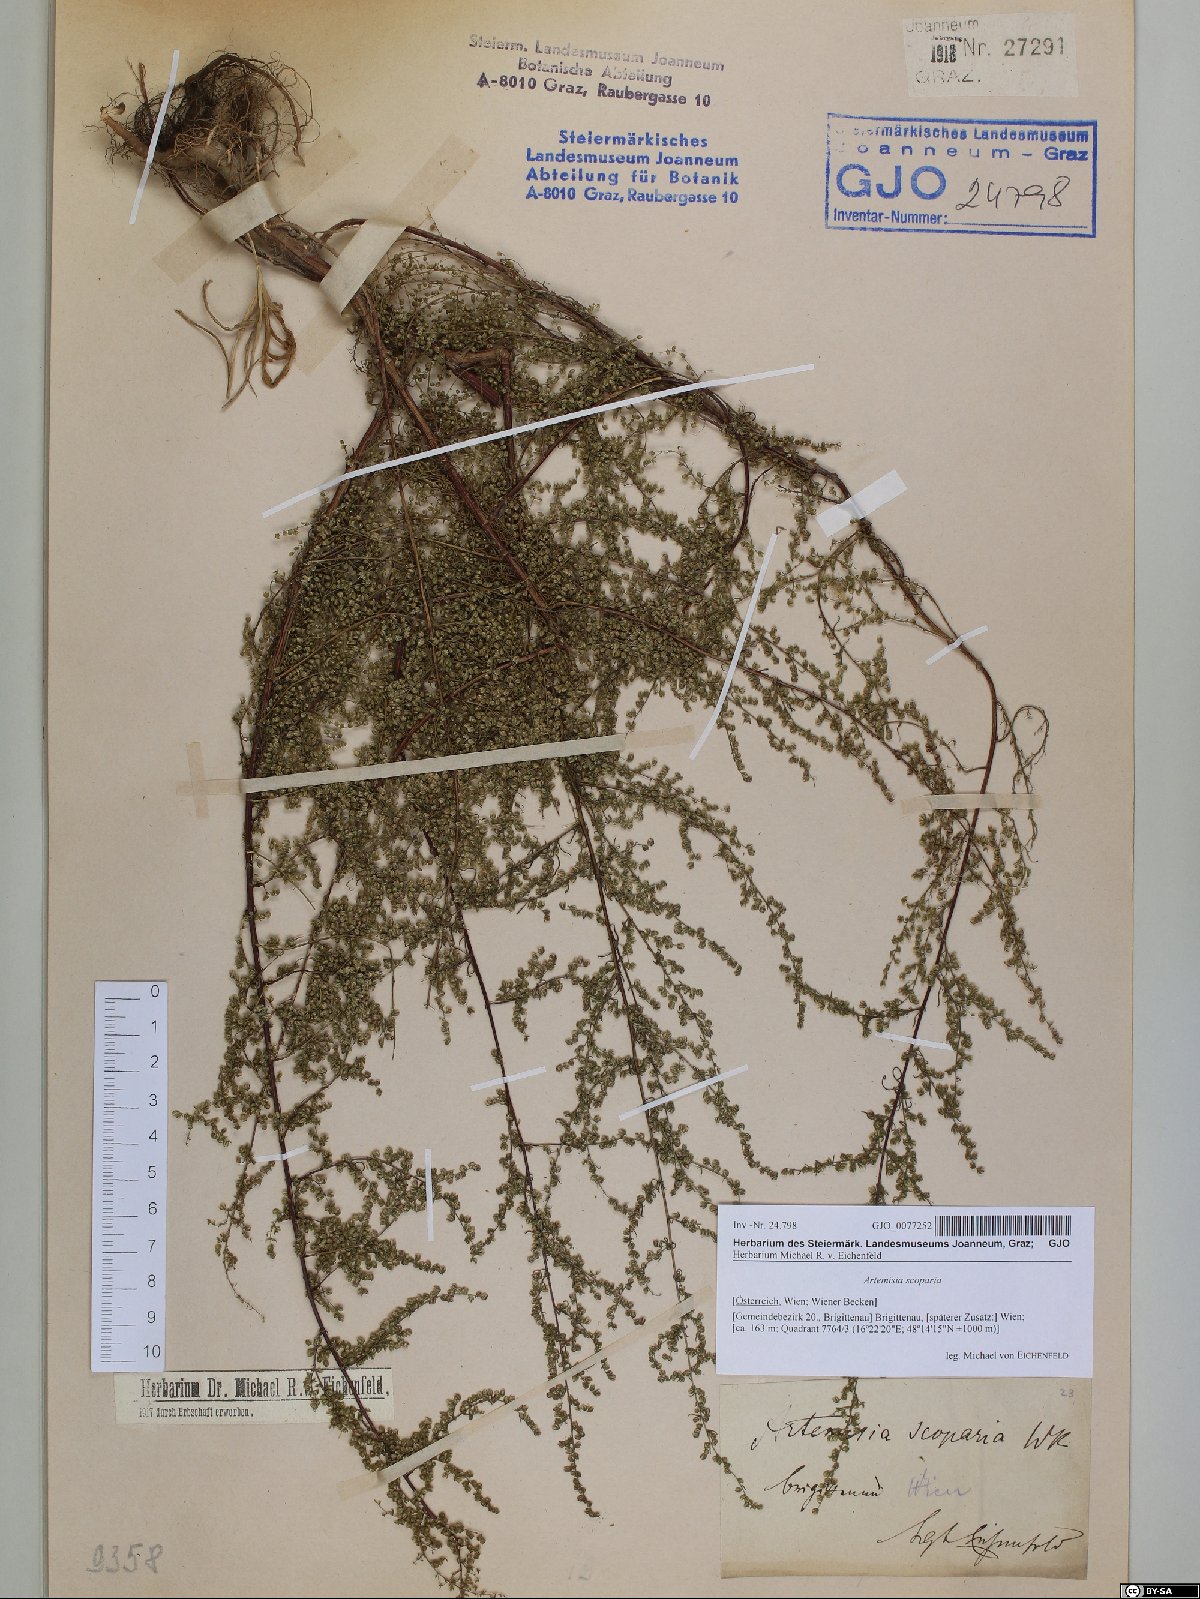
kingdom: Plantae
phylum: Tracheophyta
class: Magnoliopsida
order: Asterales
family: Asteraceae
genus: Artemisia
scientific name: Artemisia scoparia
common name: Redstem wormwood
